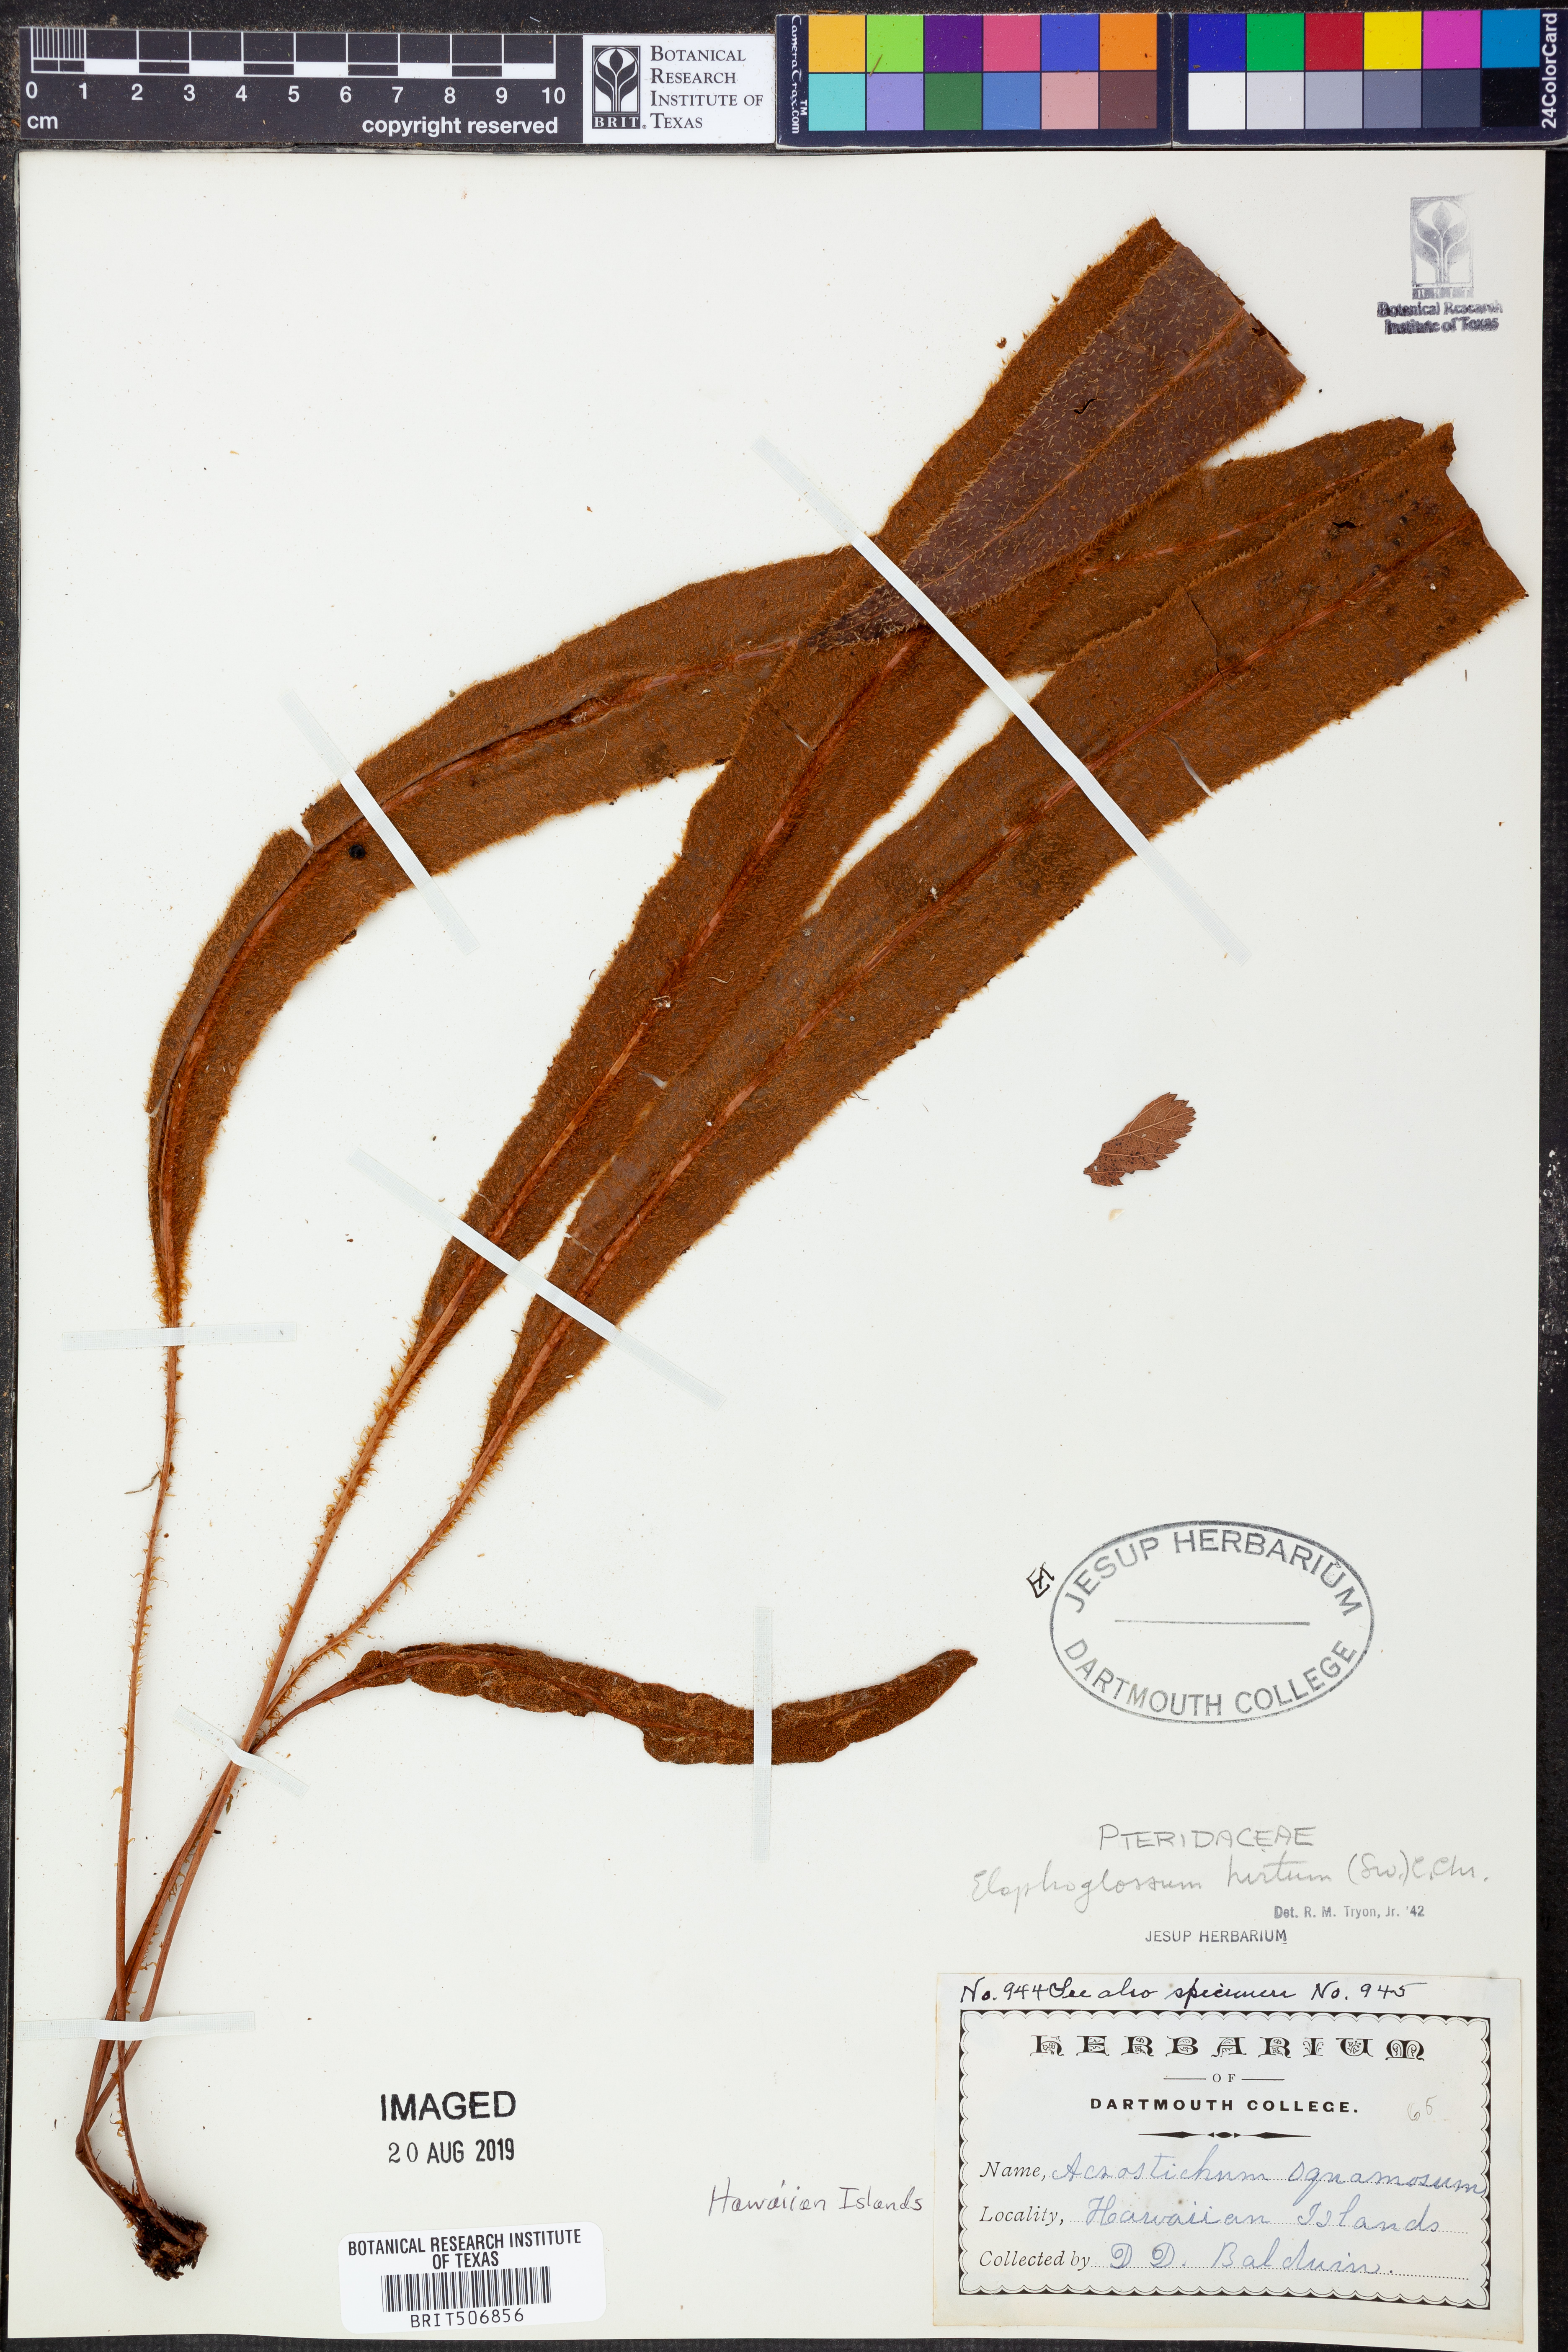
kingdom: Plantae
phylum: Tracheophyta
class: Polypodiopsida
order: Polypodiales
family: Dryopteridaceae
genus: Elaphoglossum
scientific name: Elaphoglossum hirtum
